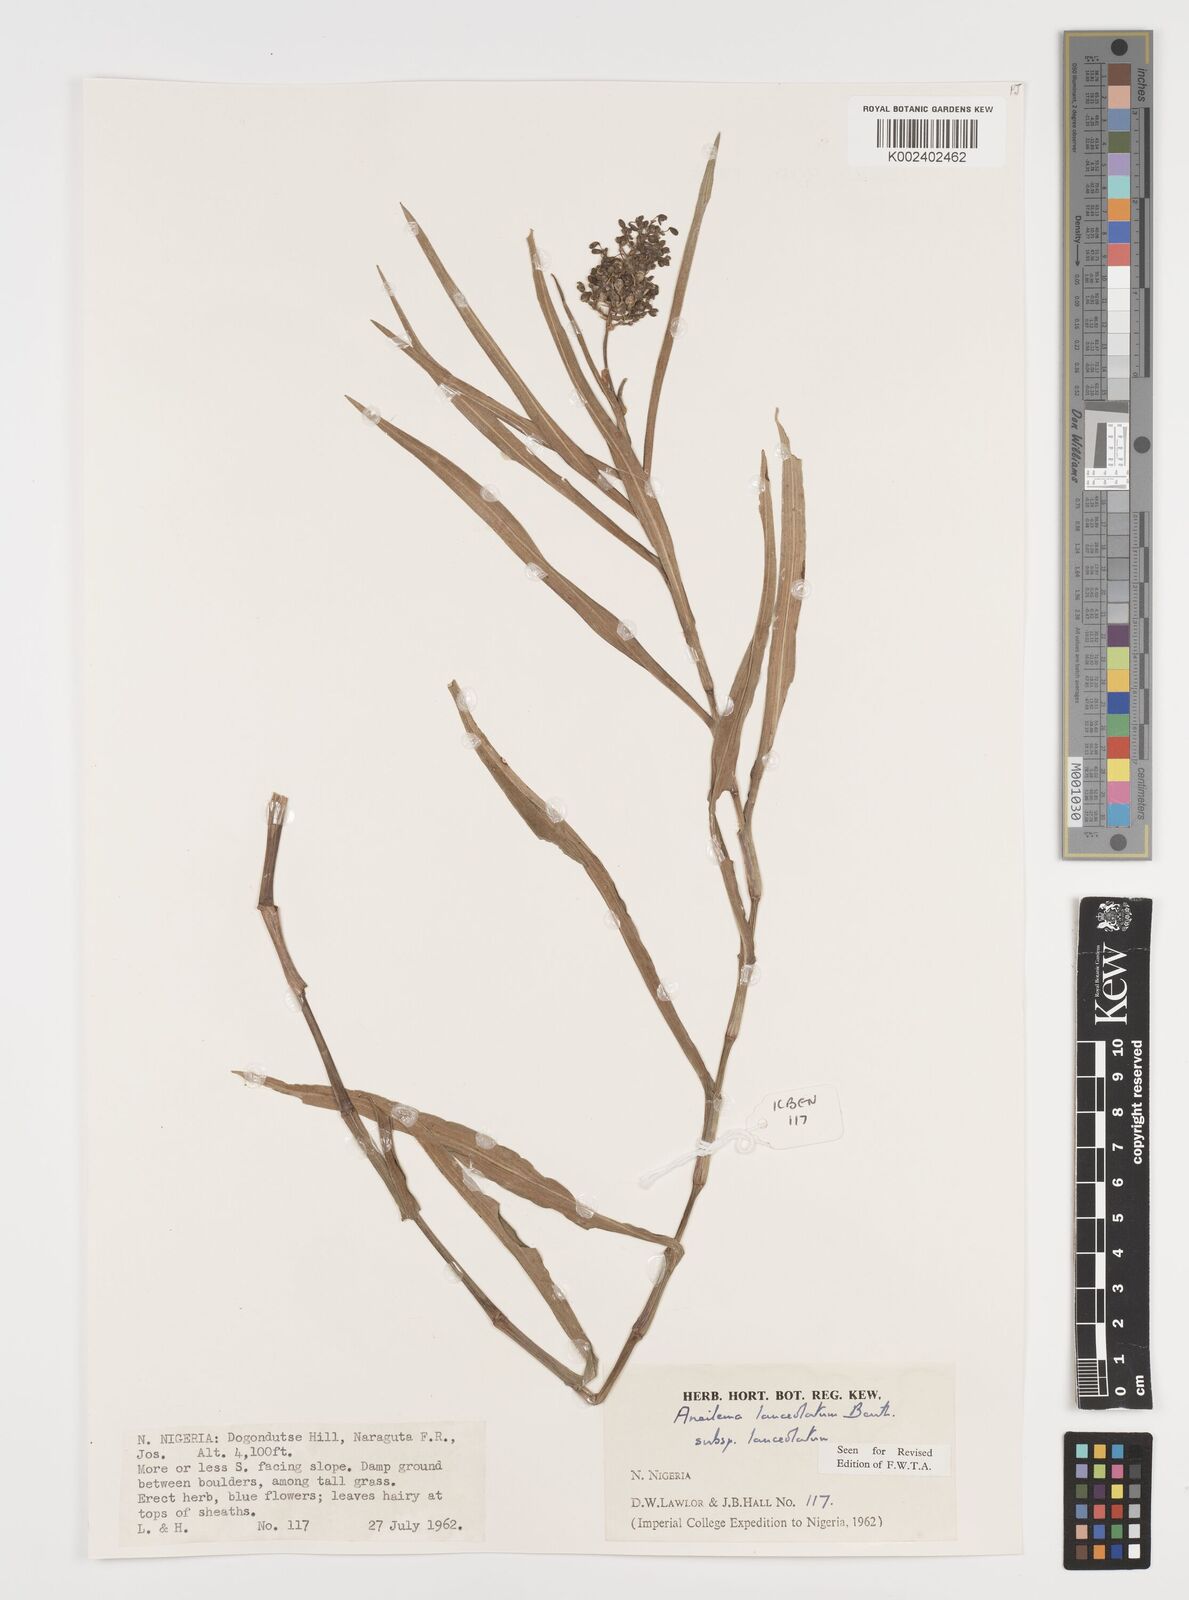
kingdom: Plantae
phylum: Tracheophyta
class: Liliopsida
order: Commelinales
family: Commelinaceae
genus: Aneilema
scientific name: Aneilema lanceolatum
